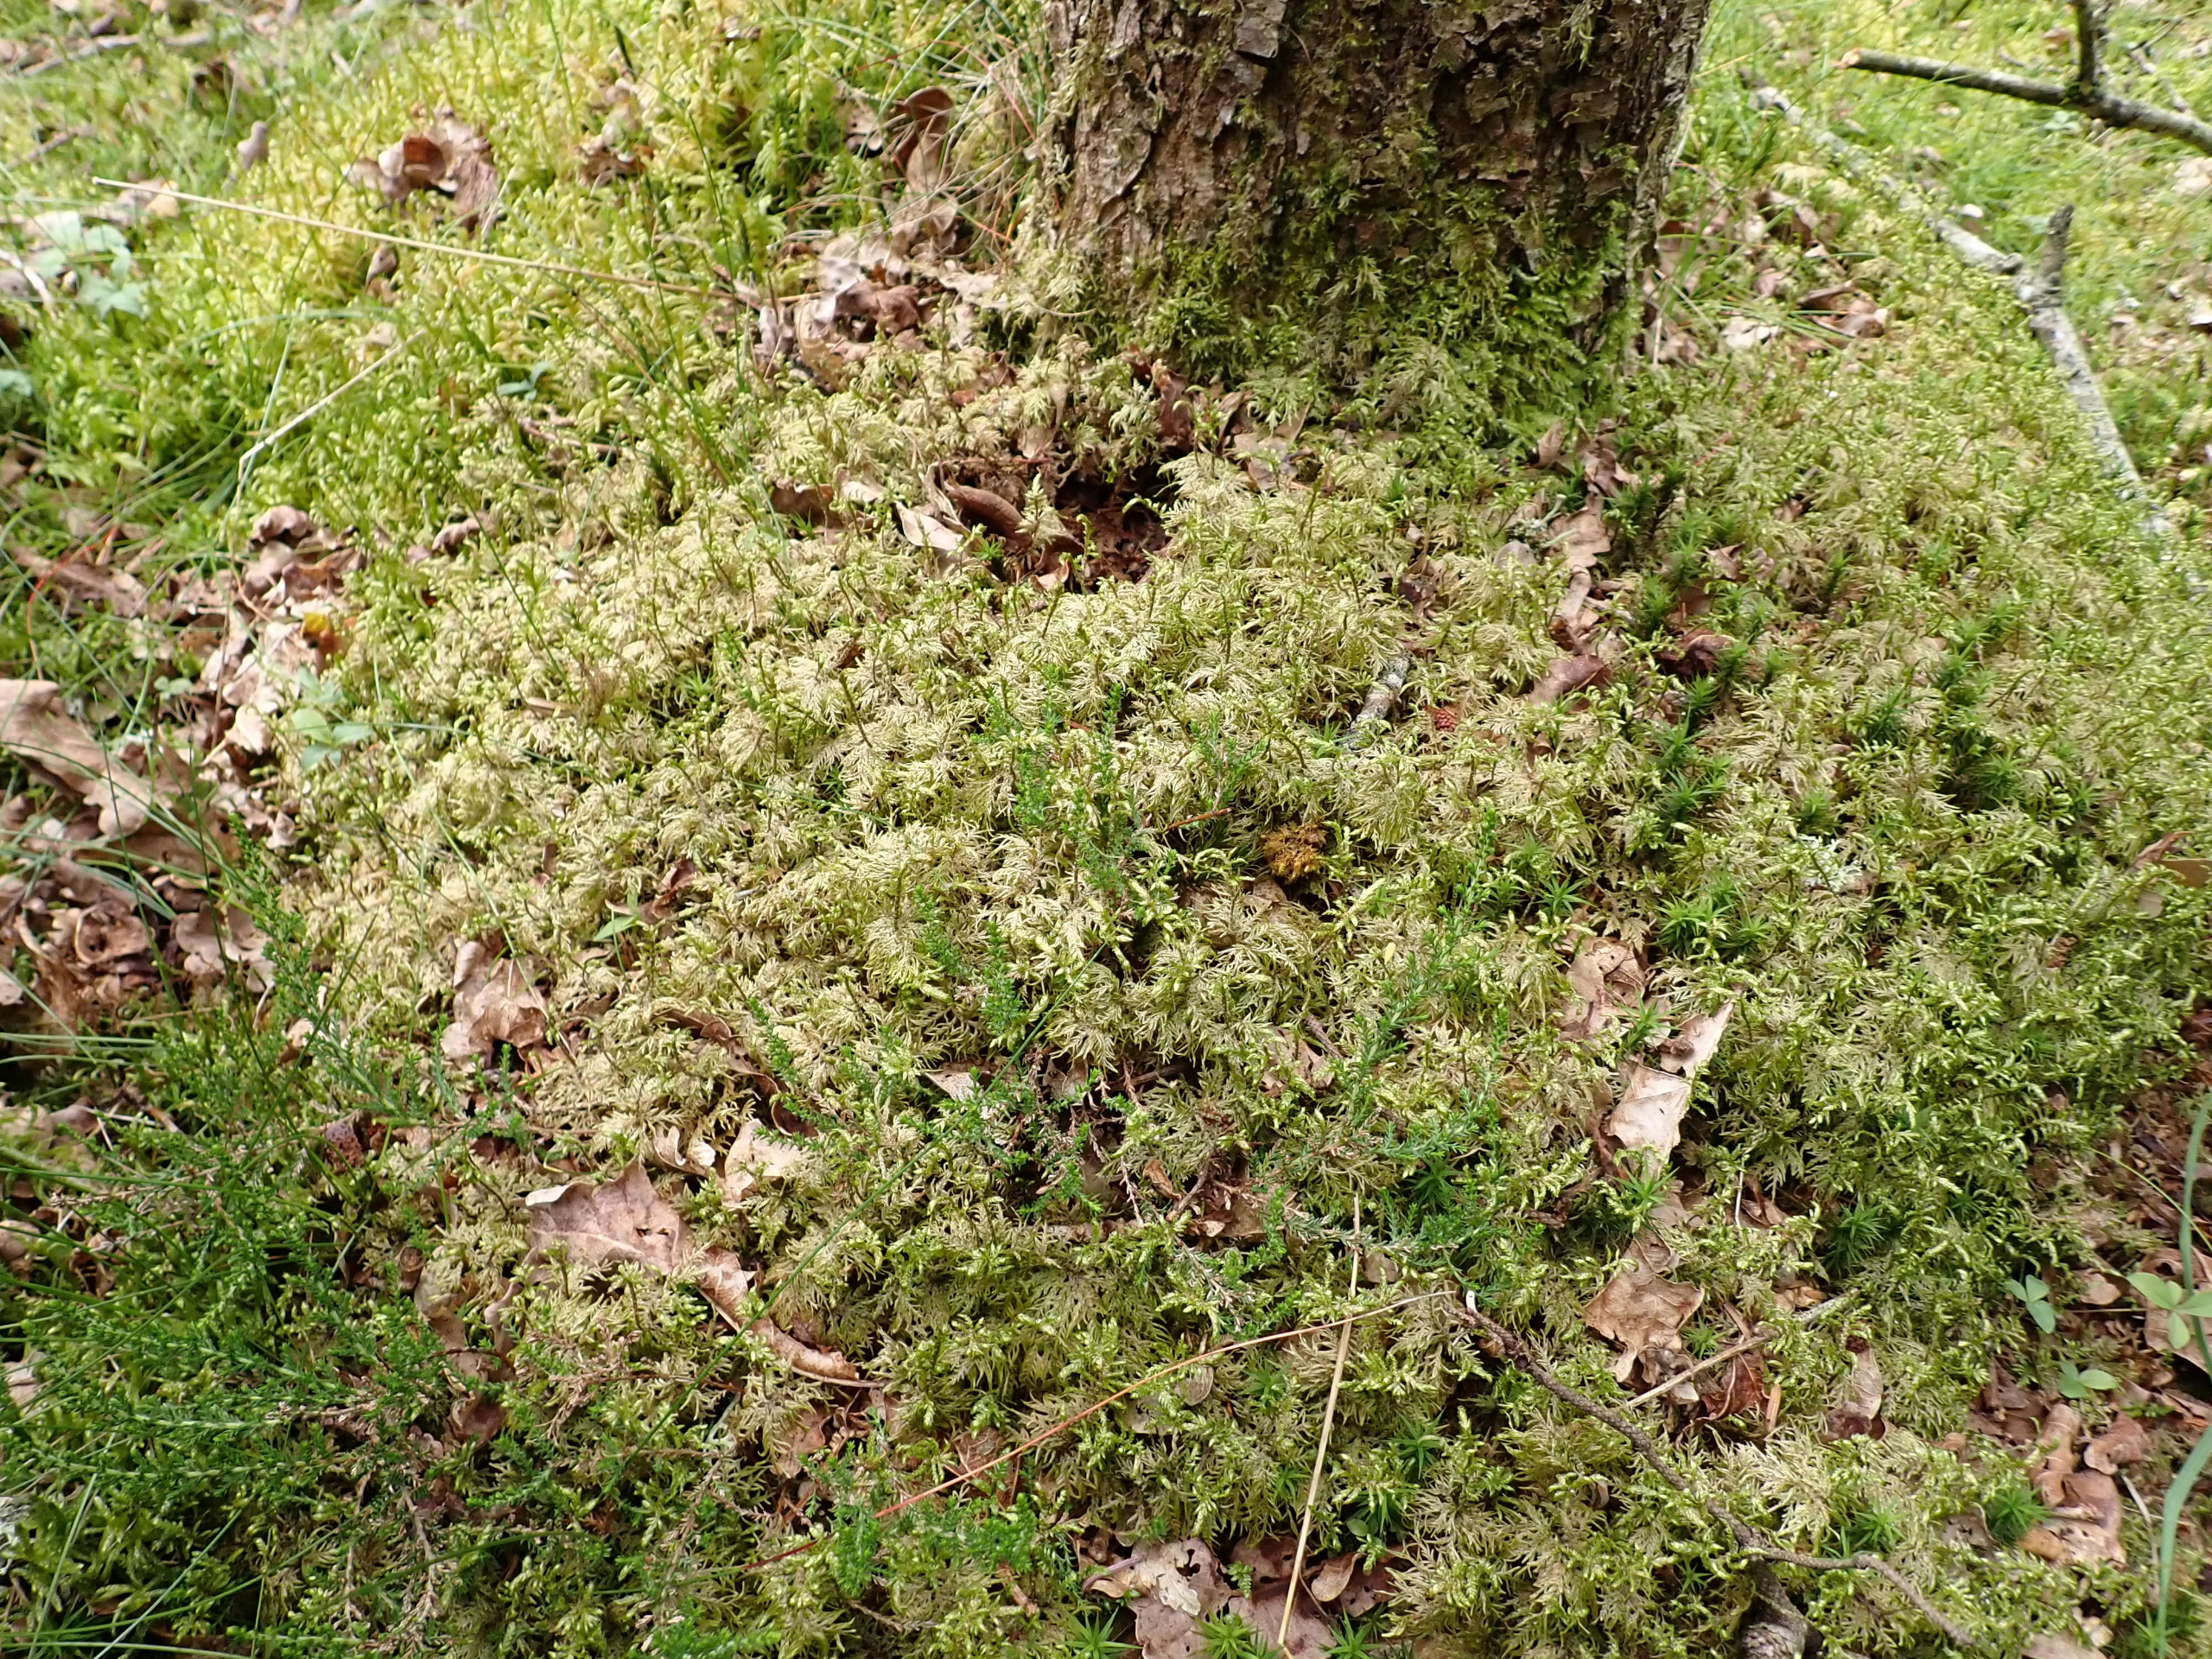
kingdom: Plantae
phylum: Bryophyta
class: Bryopsida
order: Hypnales
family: Hylocomiaceae
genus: Hylocomium
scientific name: Hylocomium splendens
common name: Almindelig etagemos
